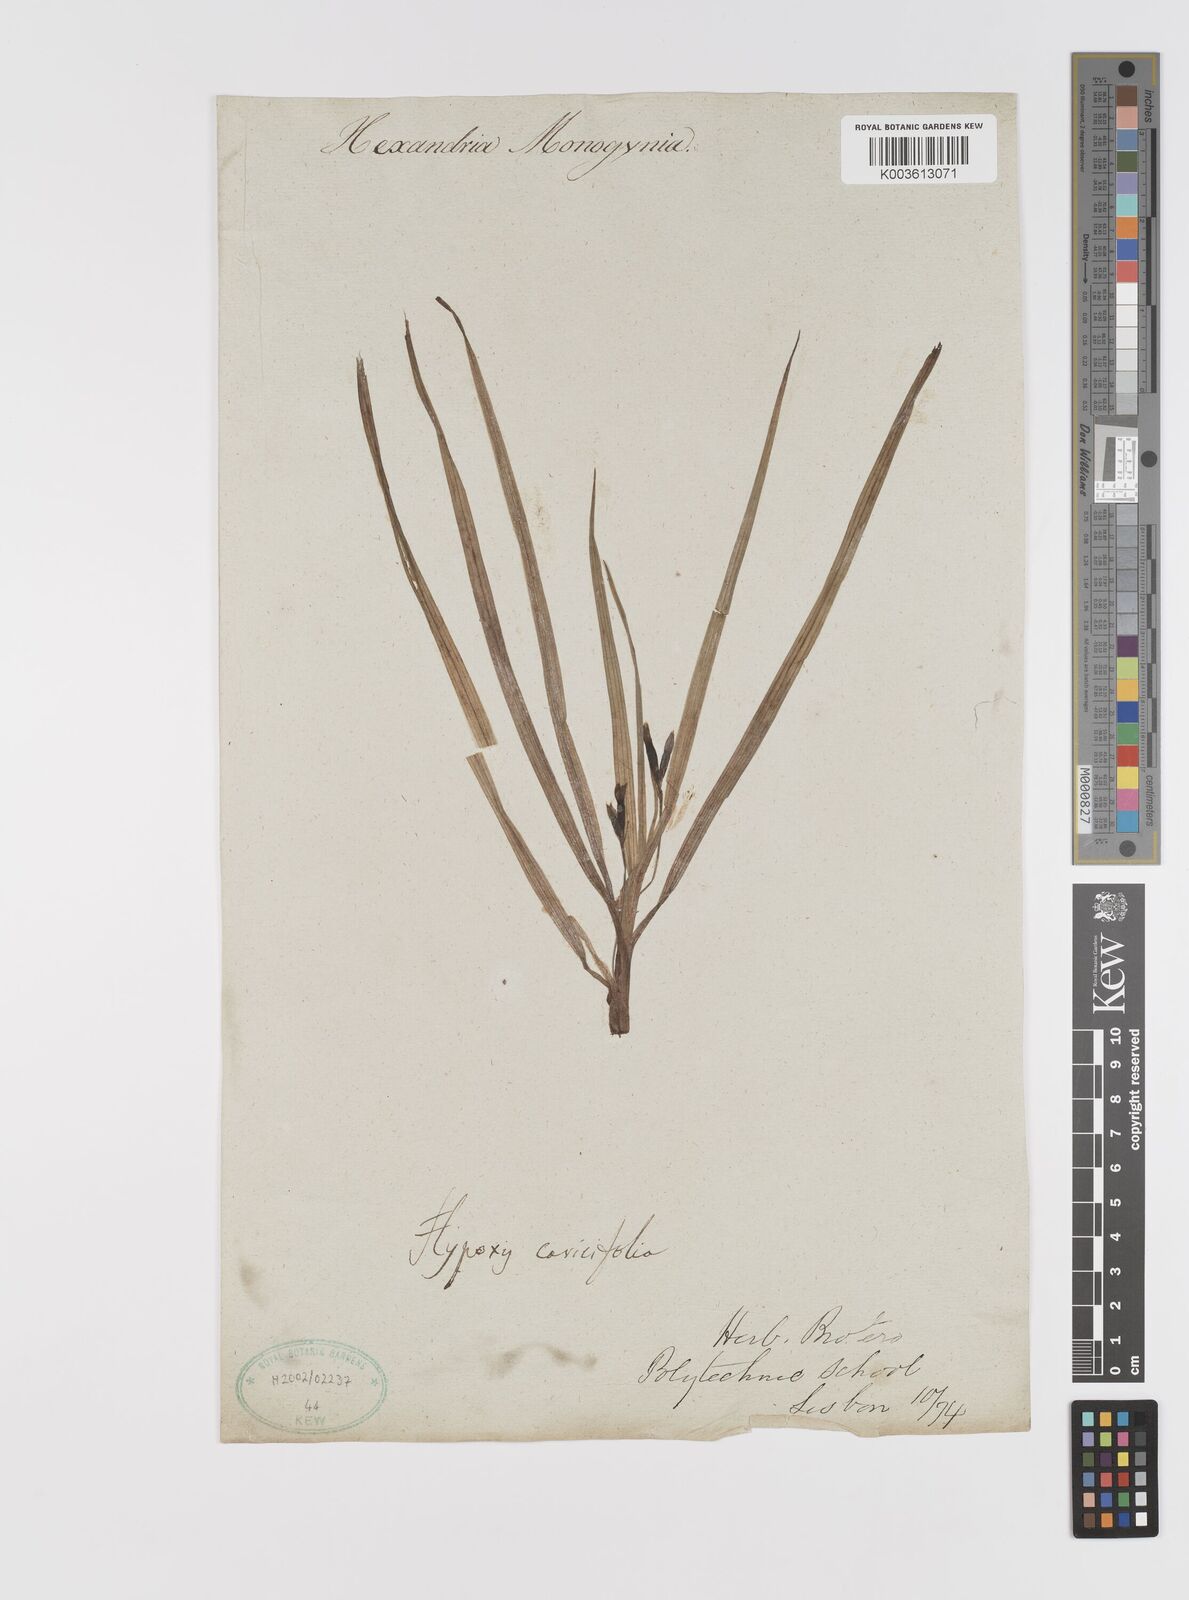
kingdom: Plantae
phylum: Tracheophyta
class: Liliopsida
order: Asparagales
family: Hypoxidaceae
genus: Hypoxis
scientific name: Hypoxis
